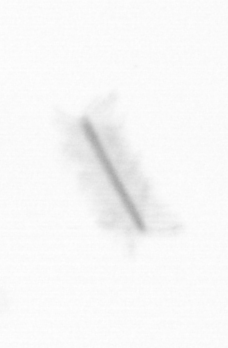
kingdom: Chromista
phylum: Ochrophyta
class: Bacillariophyceae
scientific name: Bacillariophyceae
